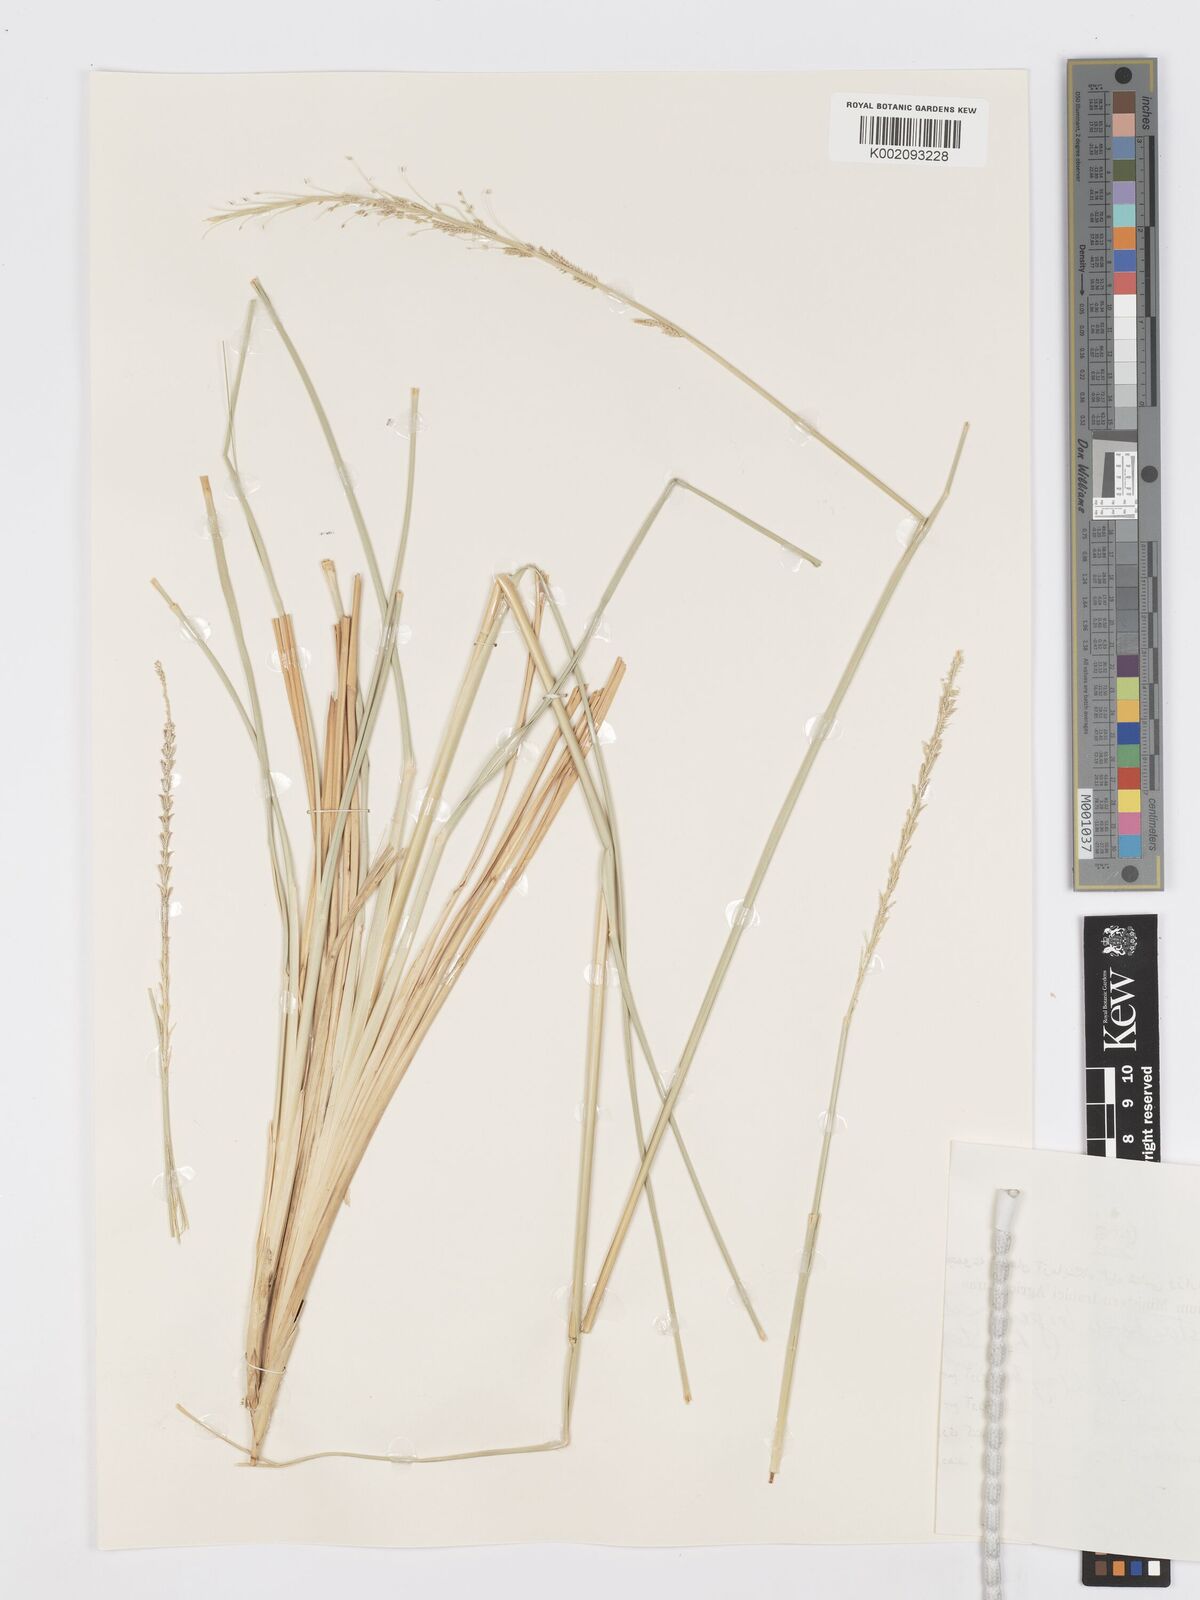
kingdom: Plantae
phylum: Tracheophyta
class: Liliopsida
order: Poales
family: Poaceae
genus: Desmostachya
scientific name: Desmostachya bipinnata
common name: Crowfoot grass
